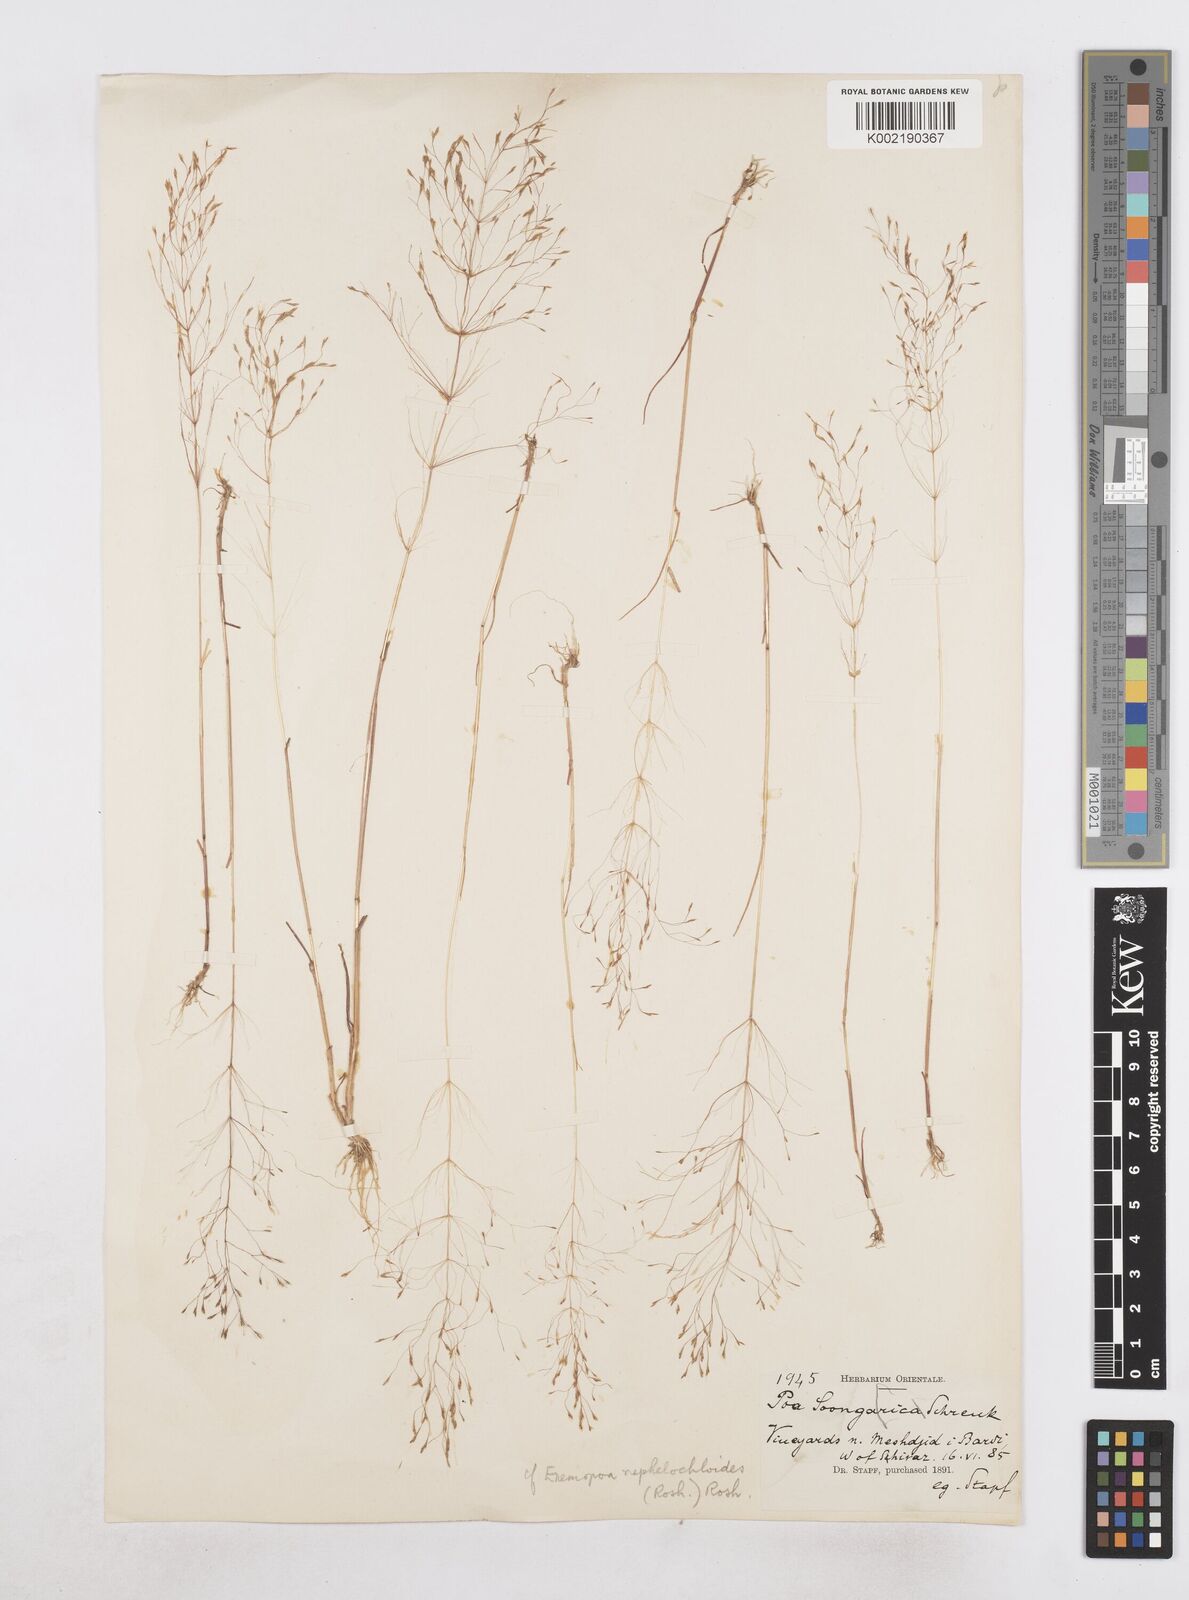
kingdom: Plantae
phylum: Tracheophyta
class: Liliopsida
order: Poales
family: Poaceae
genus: Poa
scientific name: Poa persica
